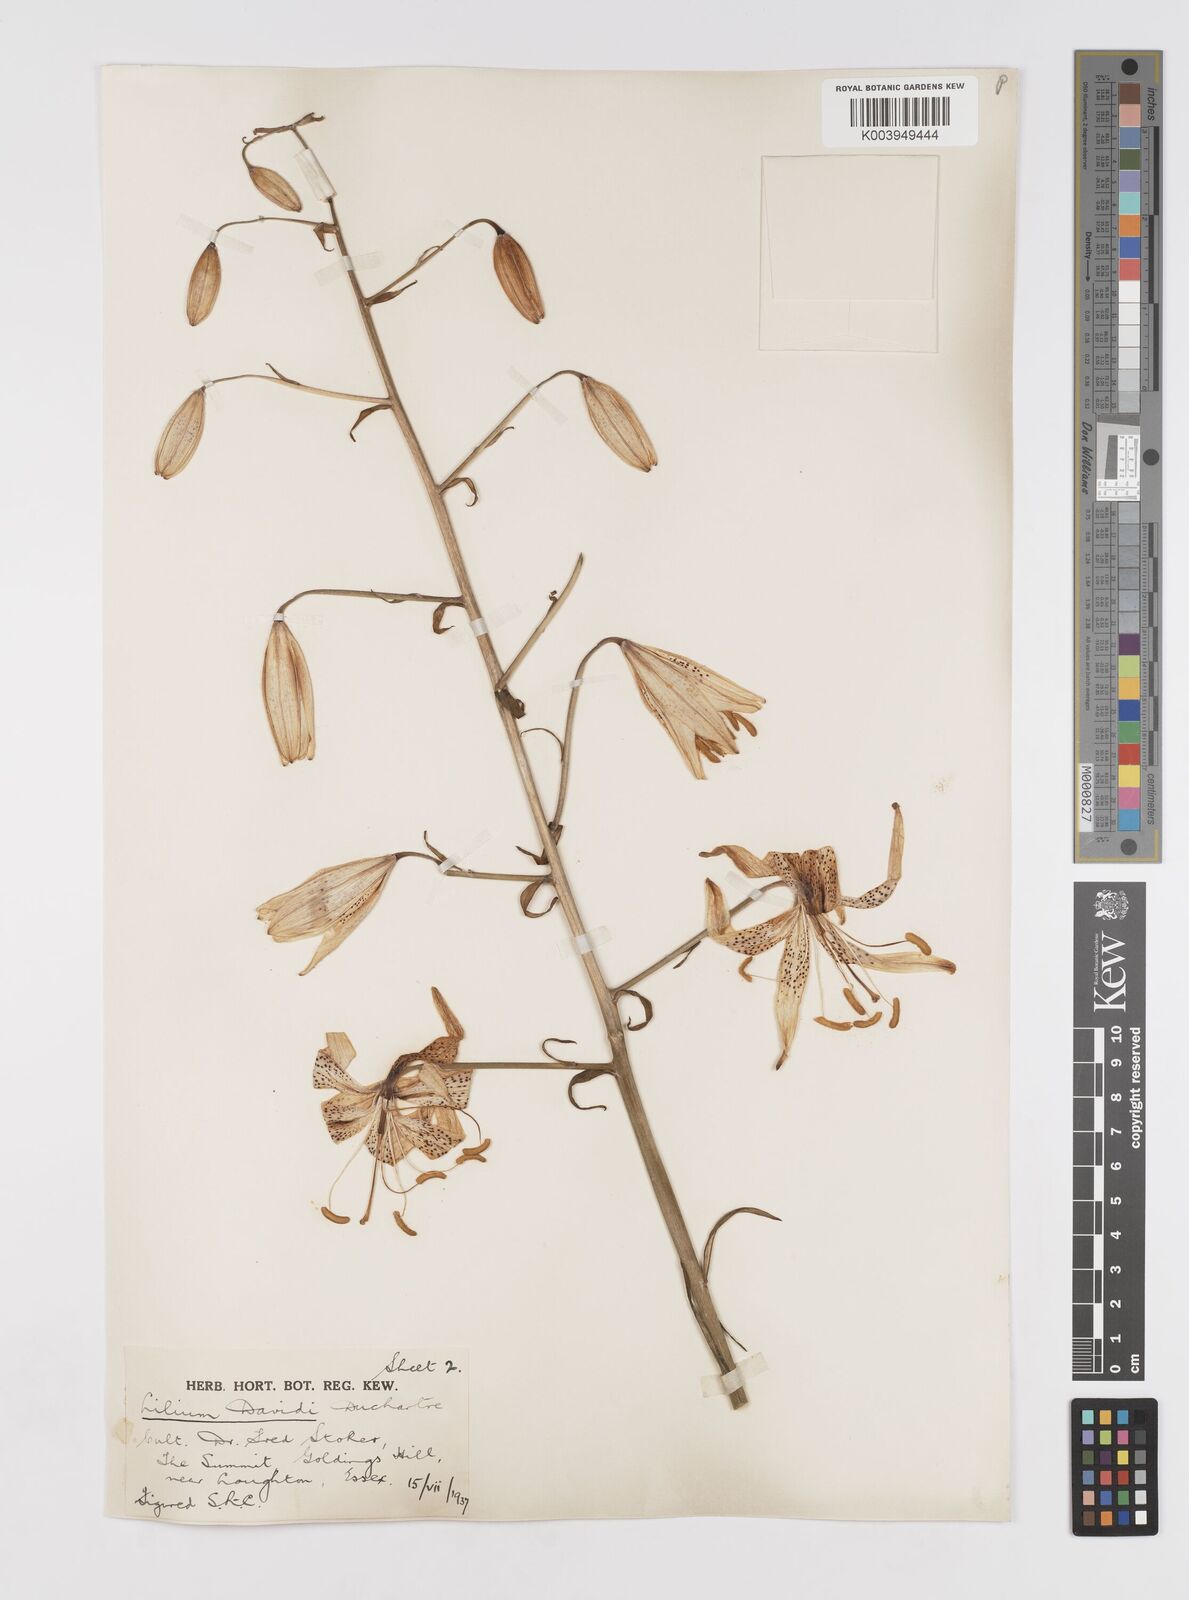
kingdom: Plantae
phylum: Tracheophyta
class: Liliopsida
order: Liliales
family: Liliaceae
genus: Lilium
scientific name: Lilium davidii
